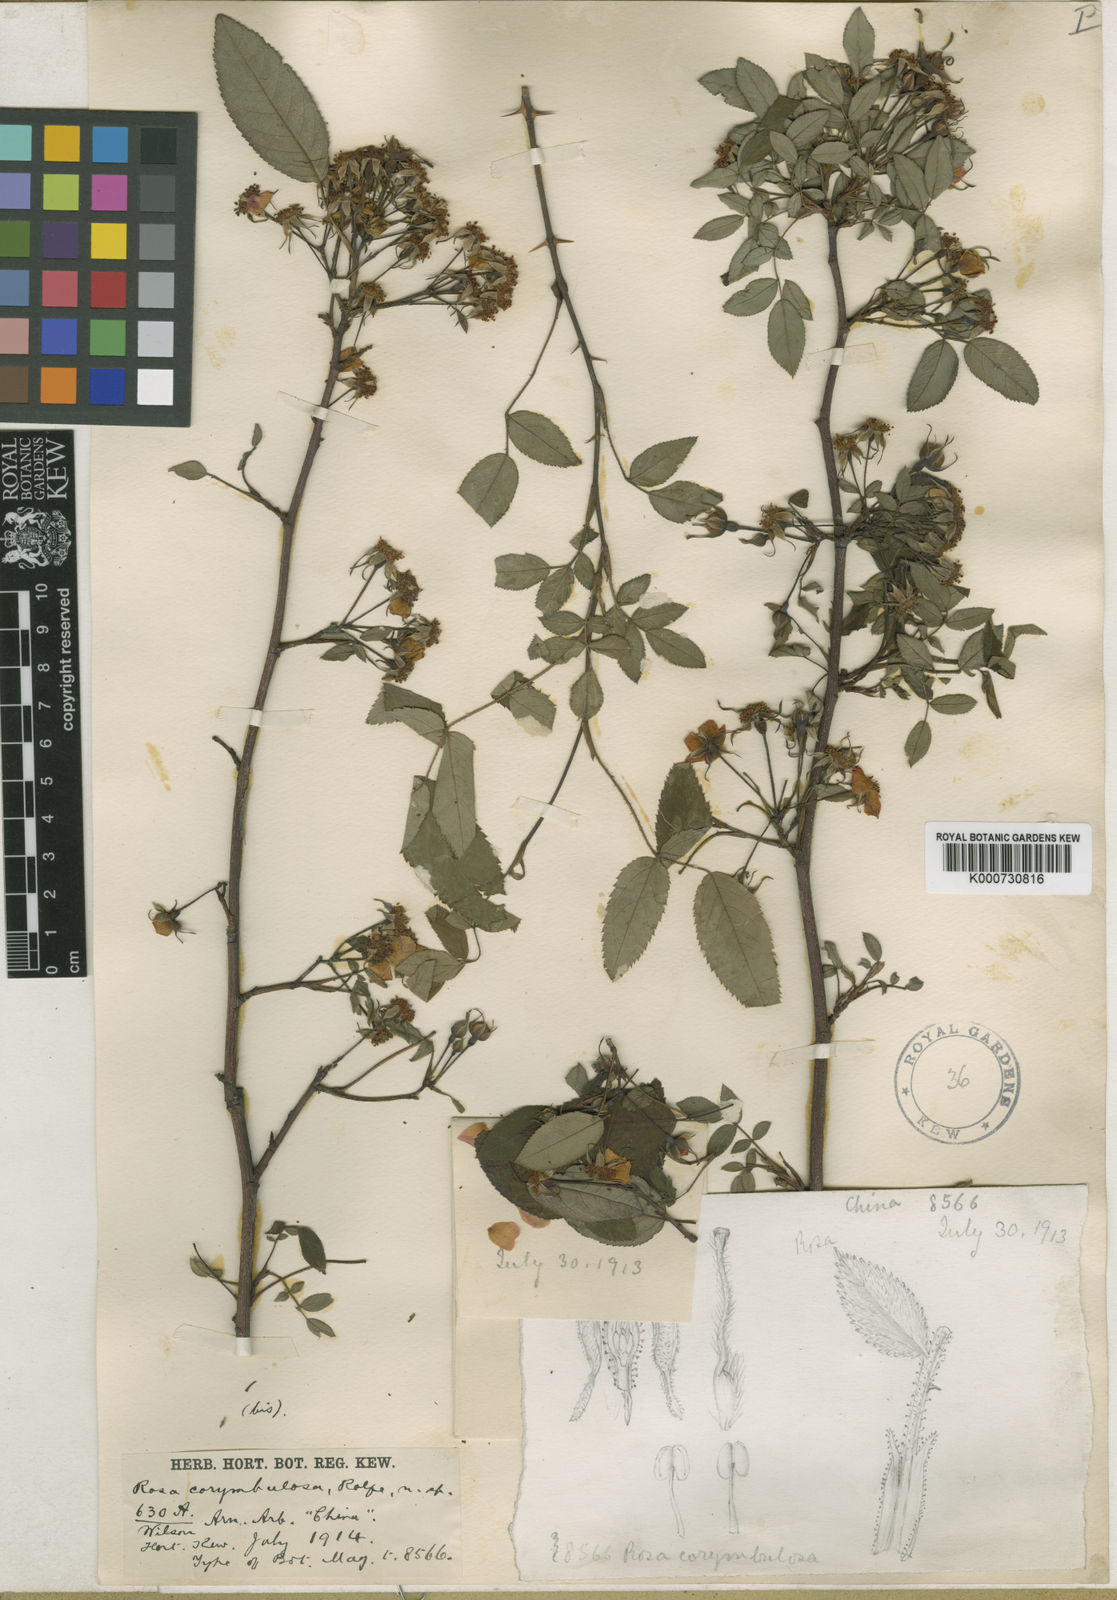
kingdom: Plantae
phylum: Tracheophyta
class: Magnoliopsida
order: Rosales
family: Rosaceae
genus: Rosa
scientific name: Rosa corymbulosa
